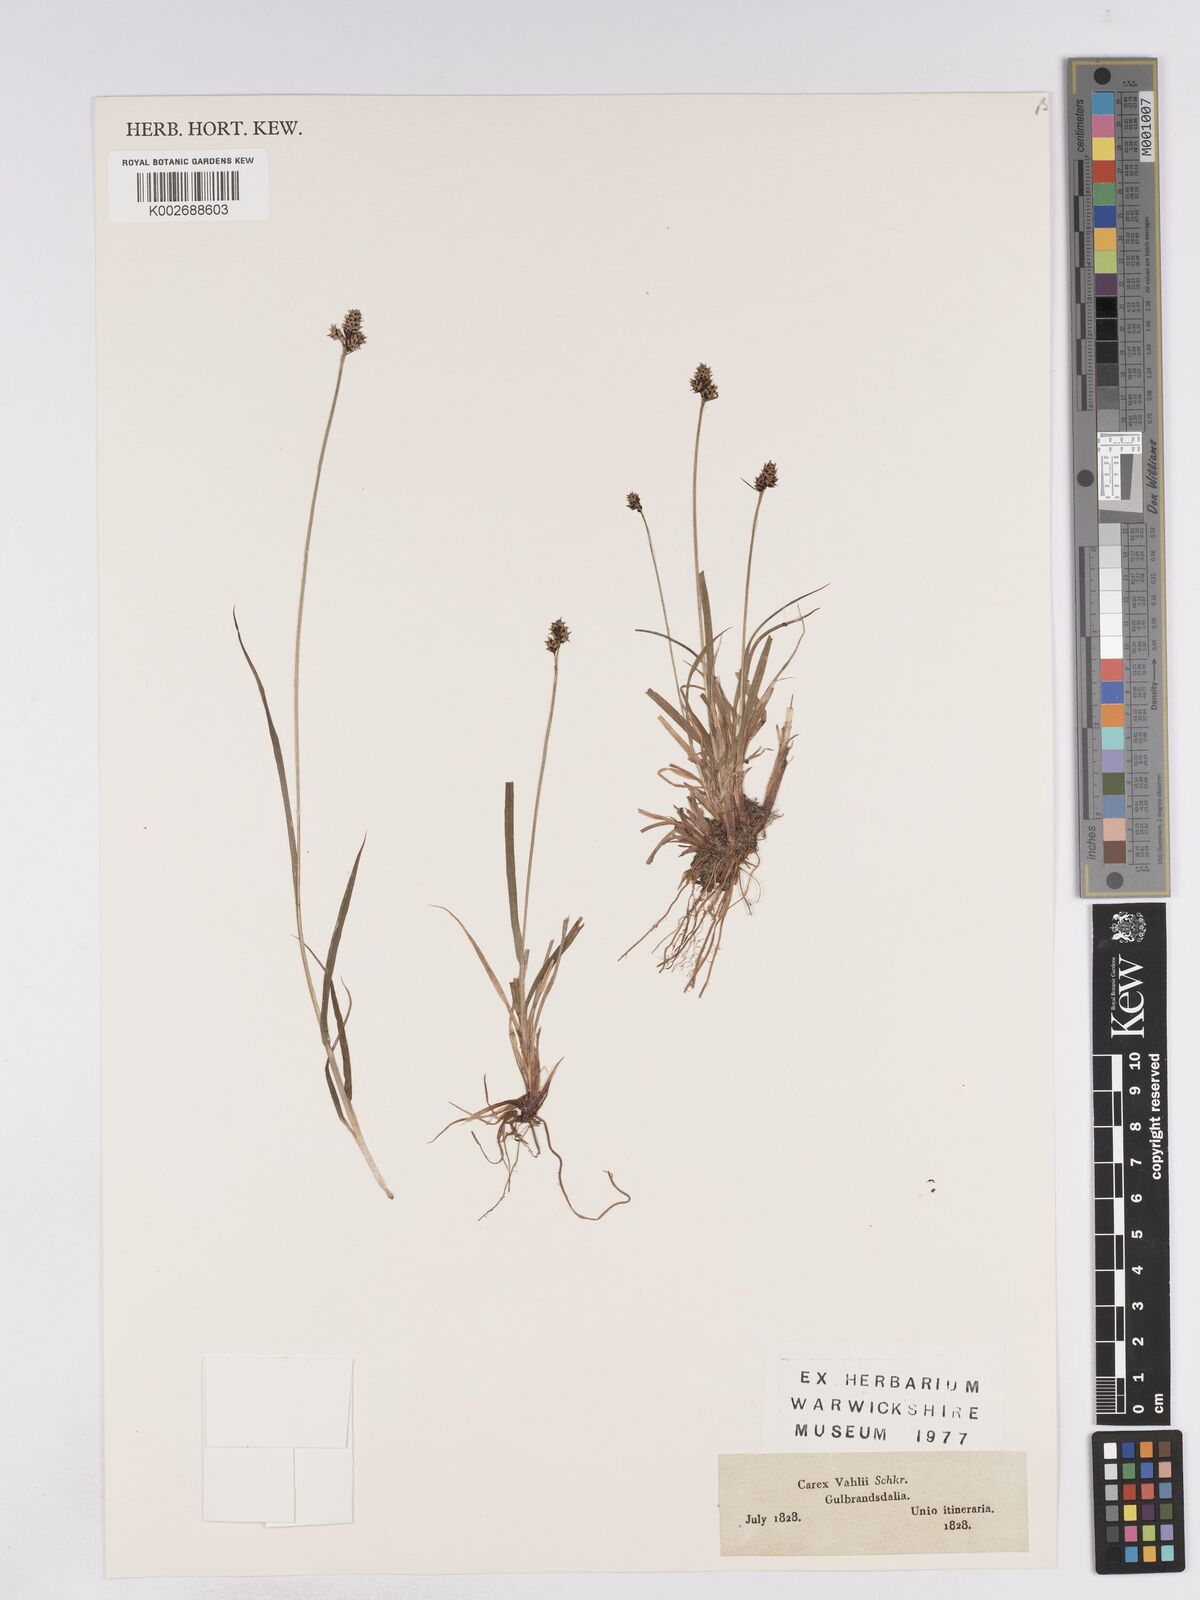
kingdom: Plantae
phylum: Tracheophyta
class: Liliopsida
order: Poales
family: Cyperaceae
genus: Carex
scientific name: Carex norvegica
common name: Close-headed alpine-sedge
